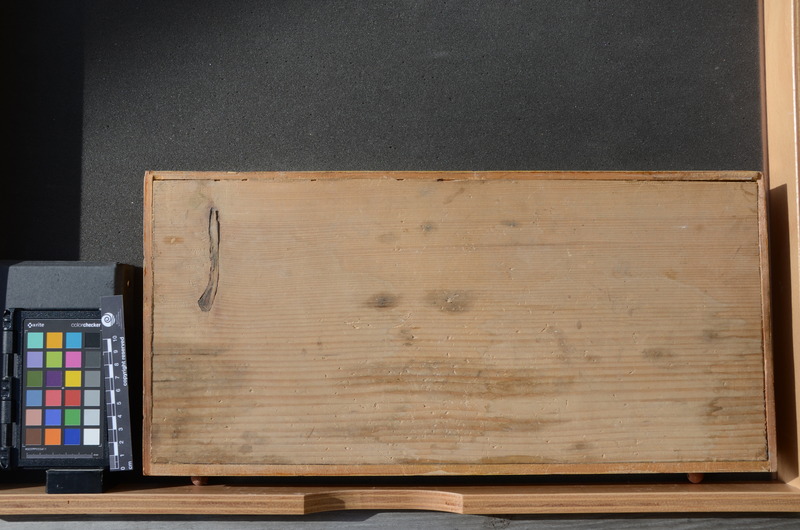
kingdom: Animalia
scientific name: Animalia
